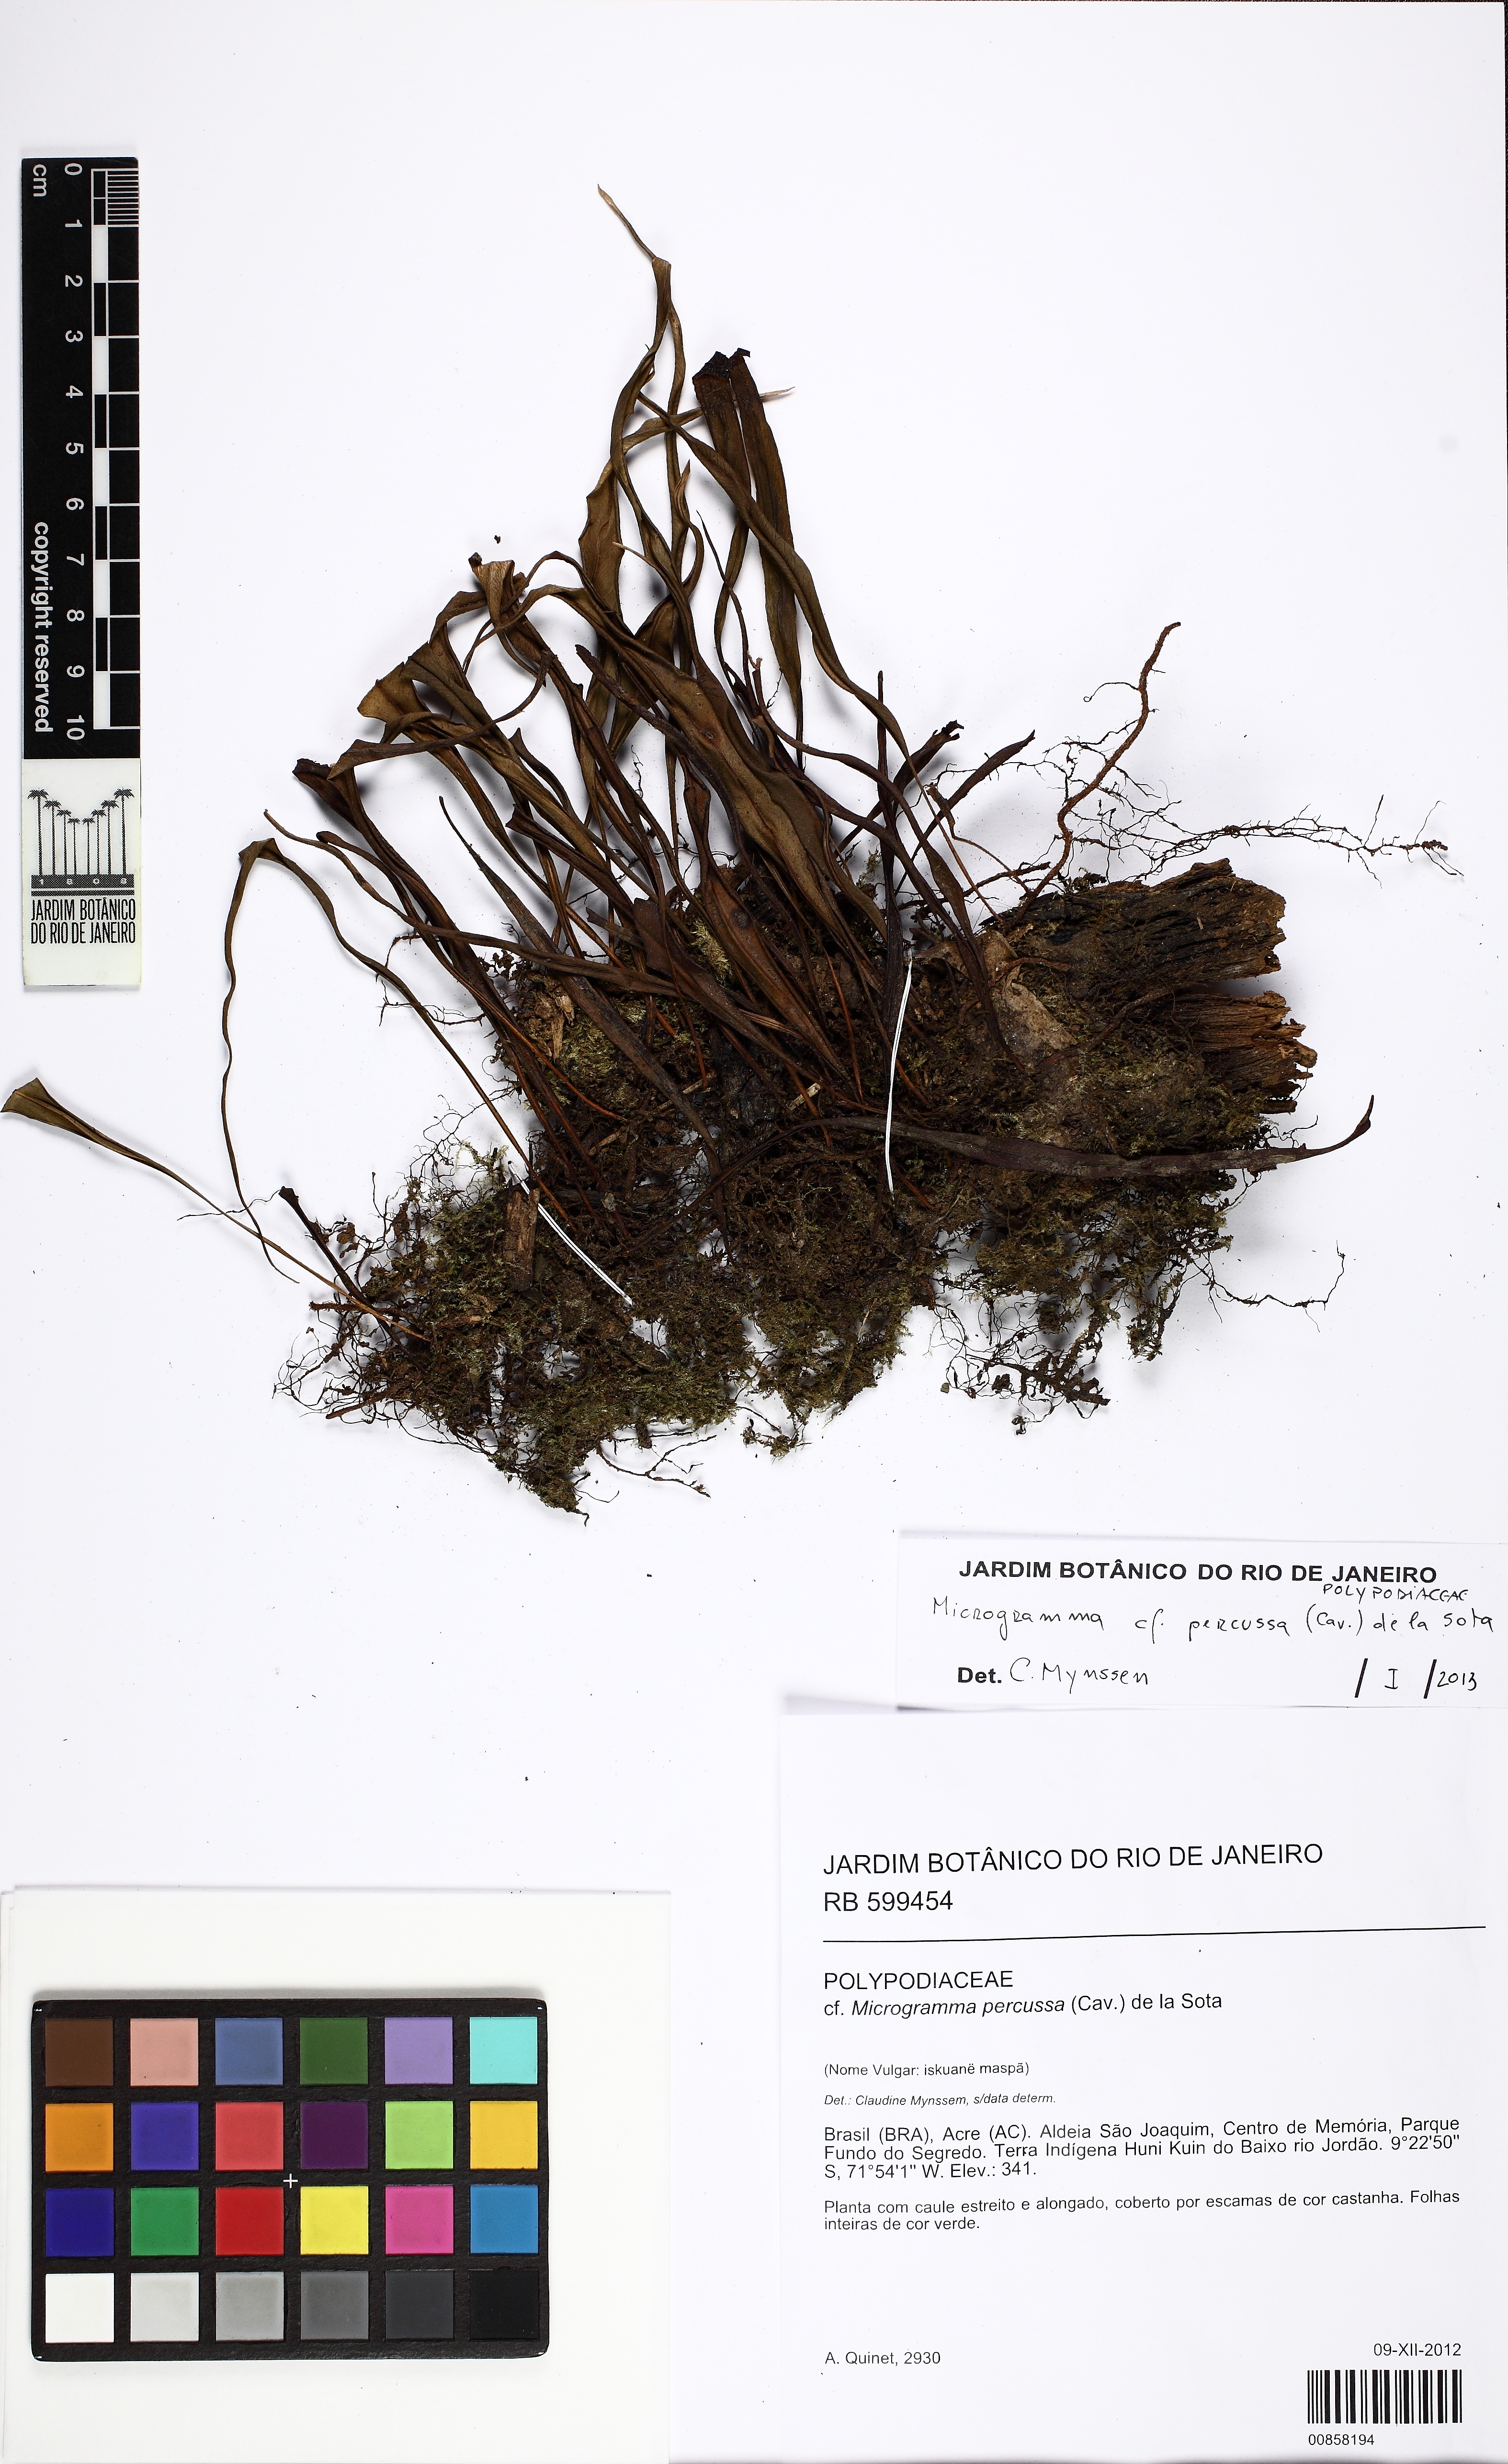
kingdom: Plantae
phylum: Tracheophyta
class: Polypodiopsida
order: Polypodiales
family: Polypodiaceae
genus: Microgramma
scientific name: Microgramma percussa
